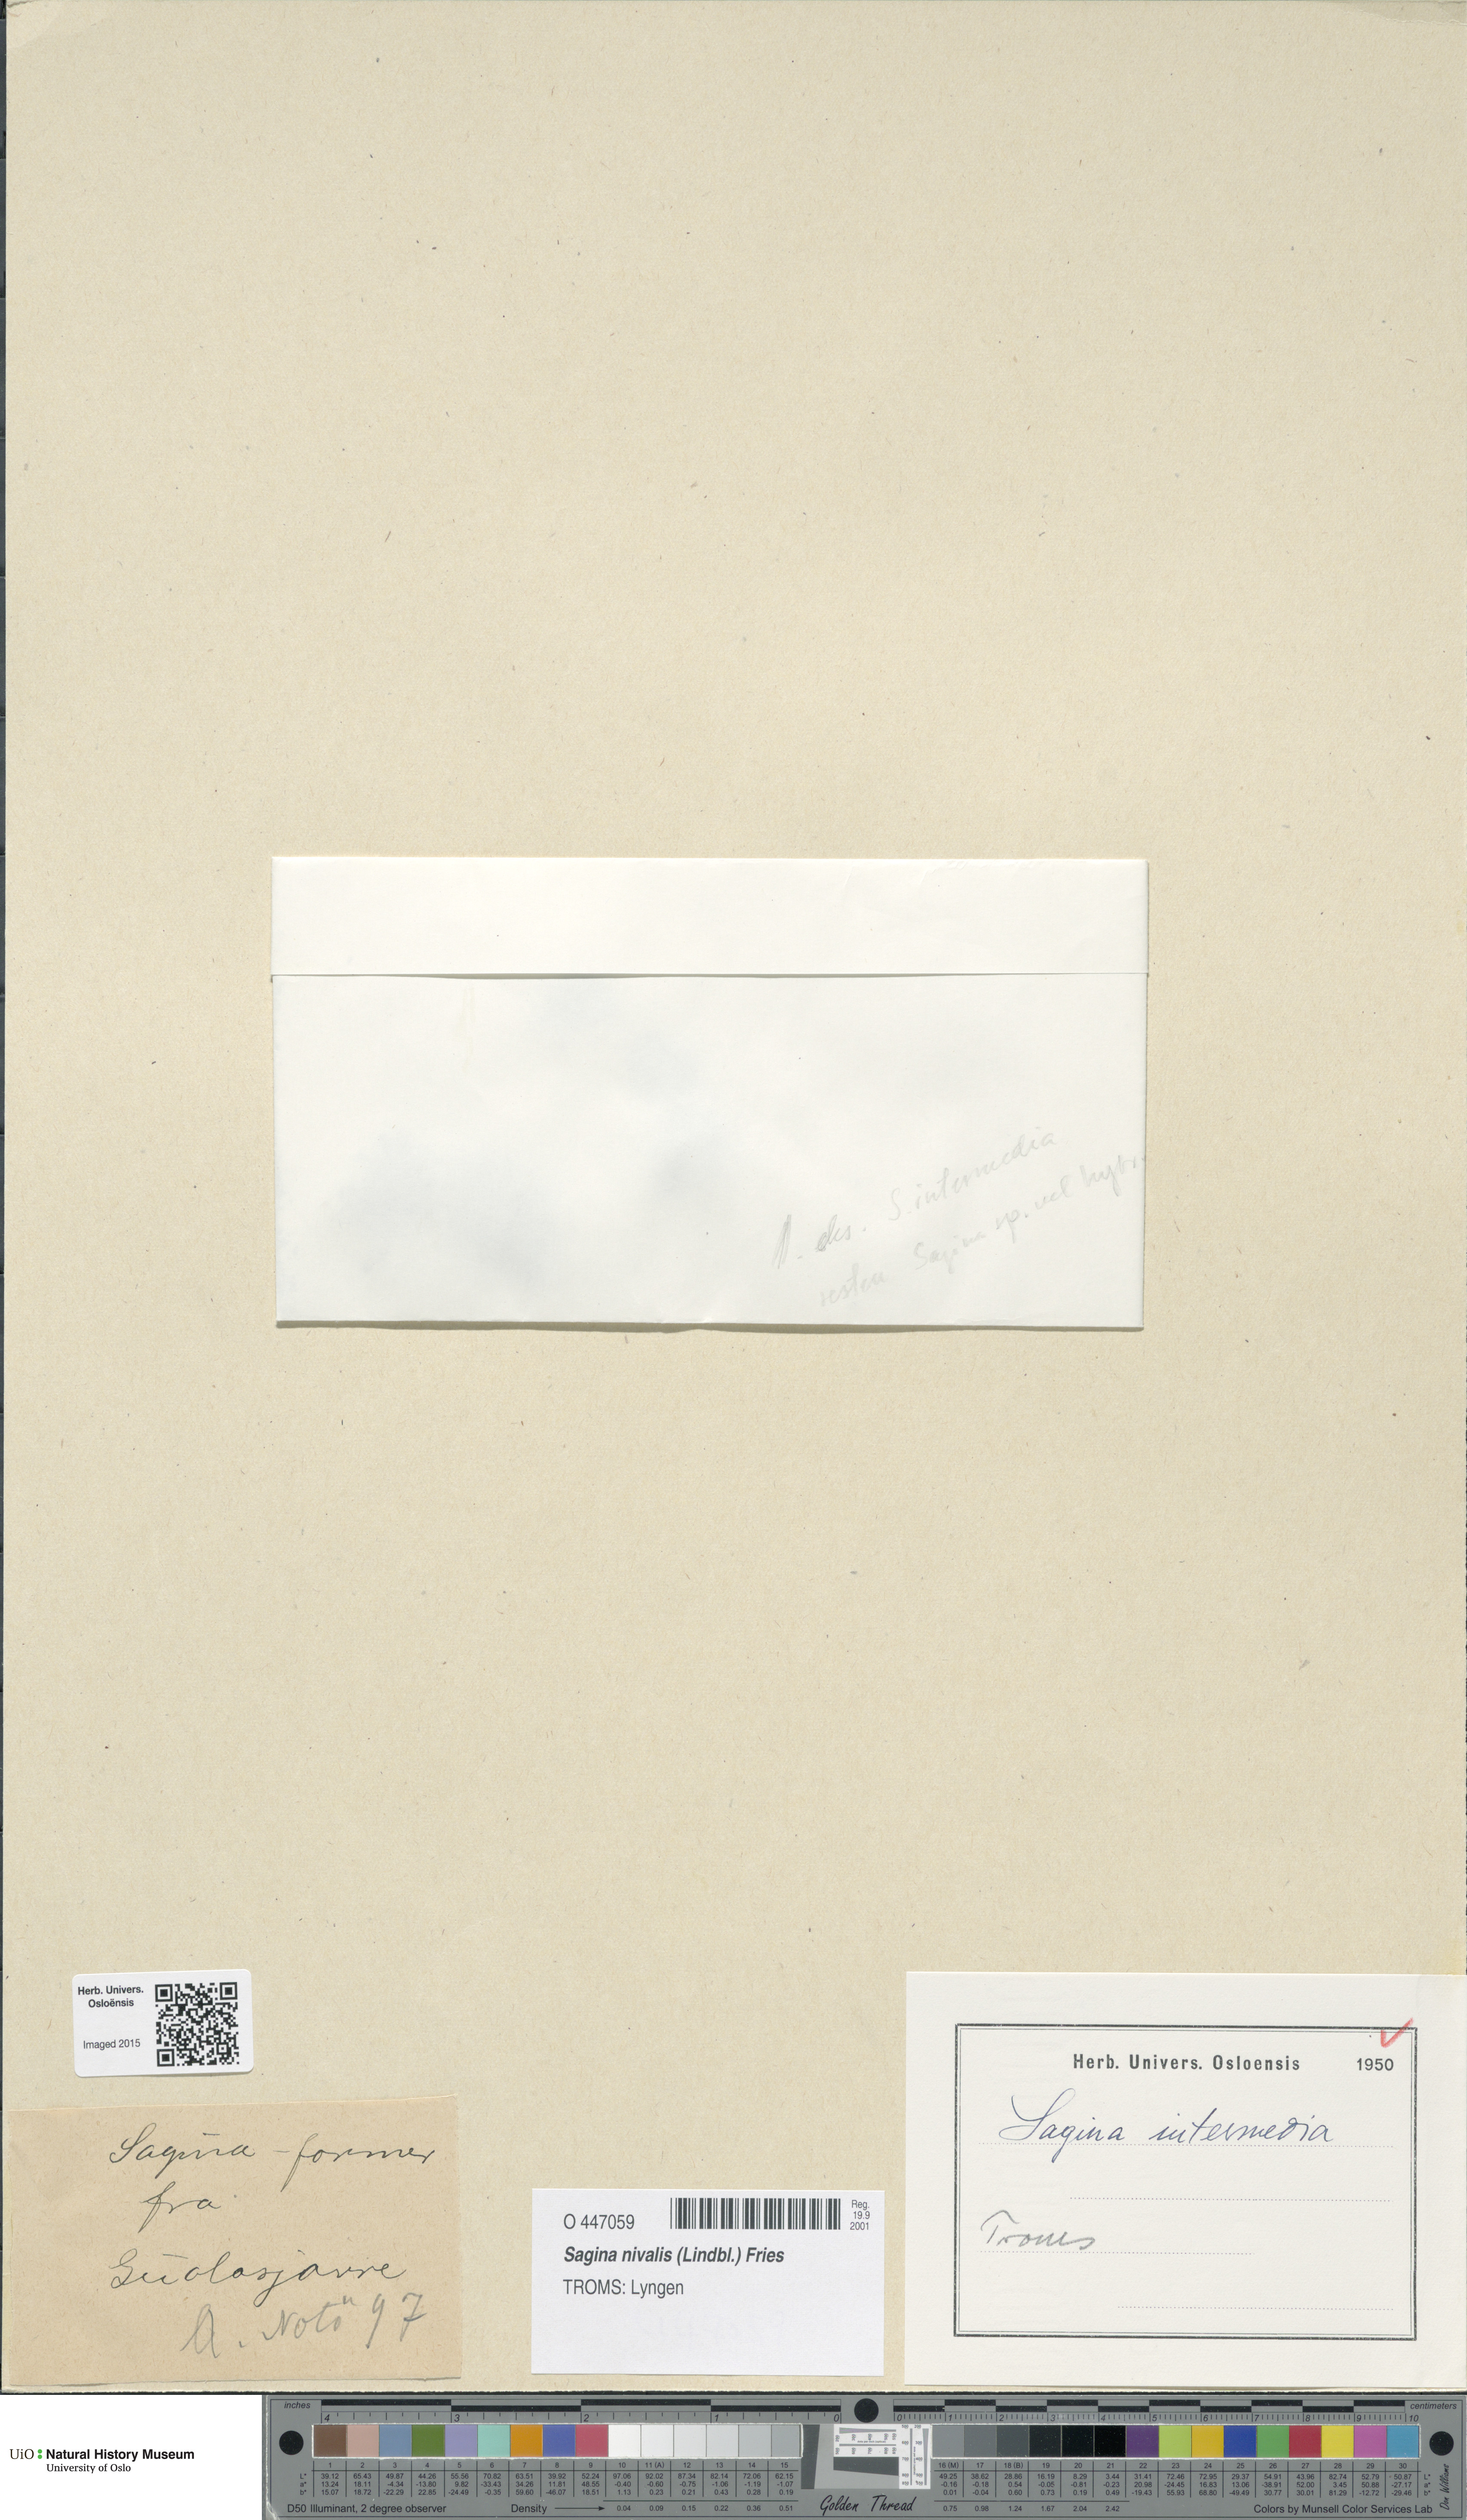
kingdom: Plantae
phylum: Tracheophyta
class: Magnoliopsida
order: Caryophyllales
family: Caryophyllaceae
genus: Sagina
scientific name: Sagina nivalis
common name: Snow pearlwort
